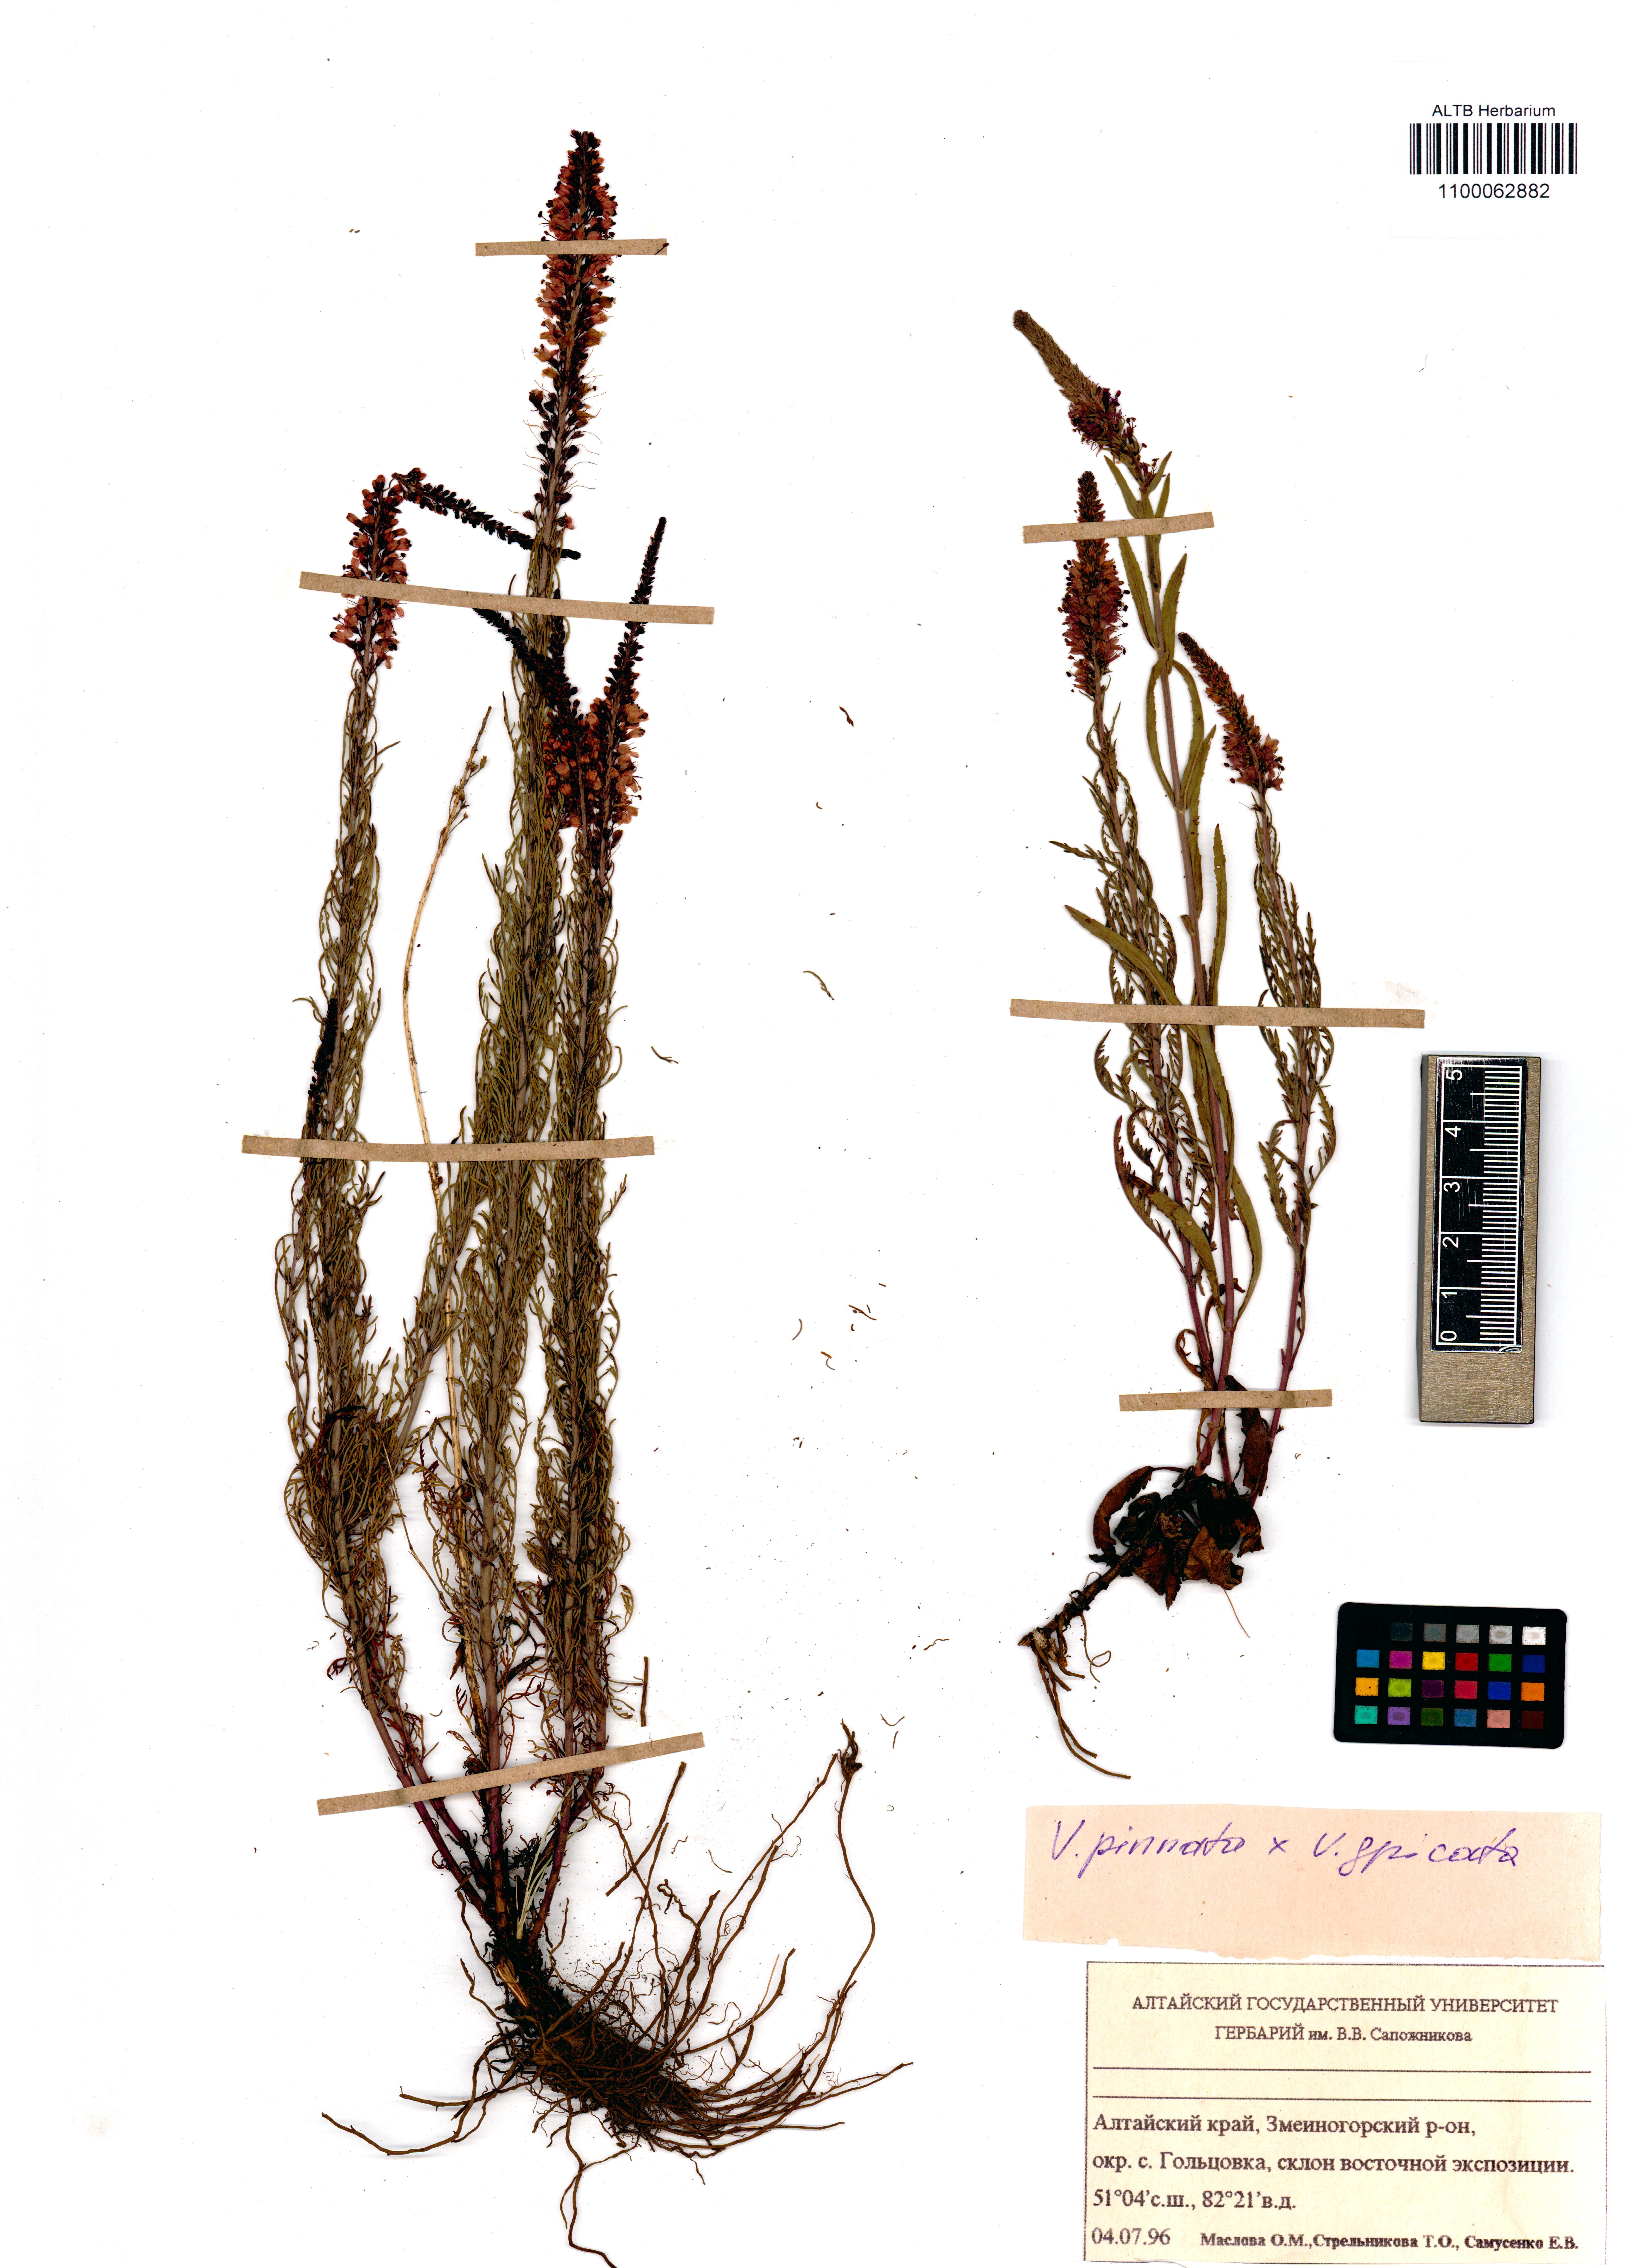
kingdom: Plantae
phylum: Tracheophyta
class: Magnoliopsida
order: Lamiales
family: Plantaginaceae
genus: Veronica
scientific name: Veronica pinnata
